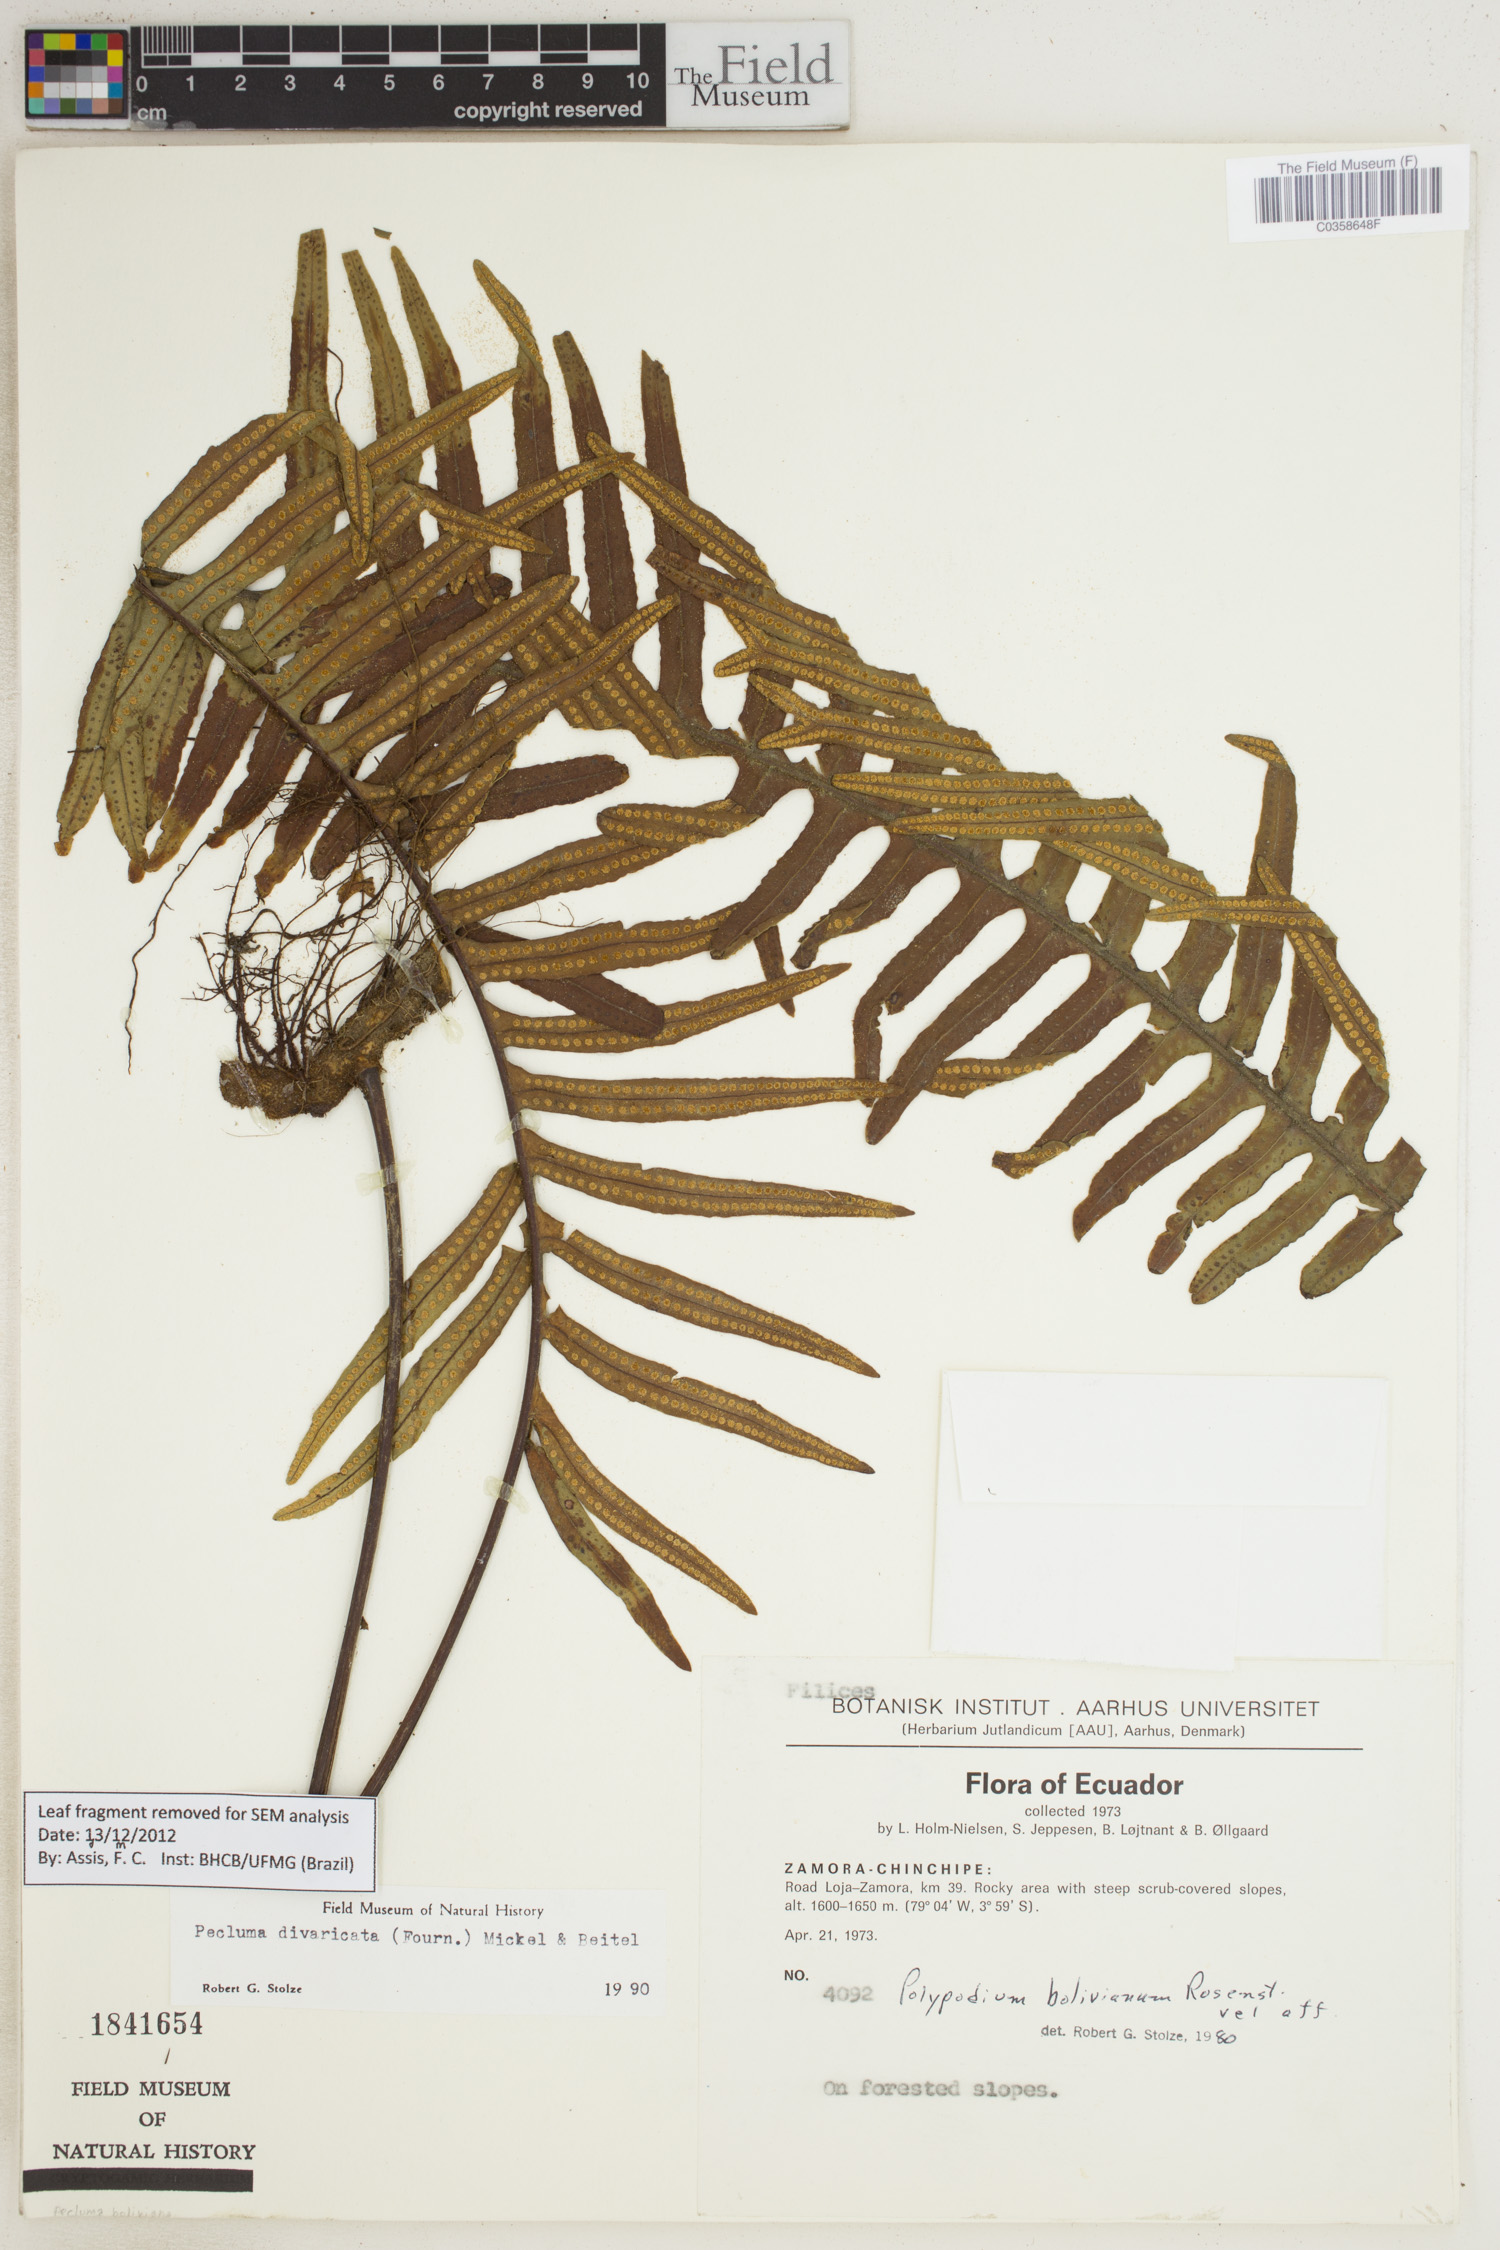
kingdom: Plantae
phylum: Tracheophyta
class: Polypodiopsida
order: Polypodiales
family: Polypodiaceae
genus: Pecluma
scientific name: Pecluma divaricata
